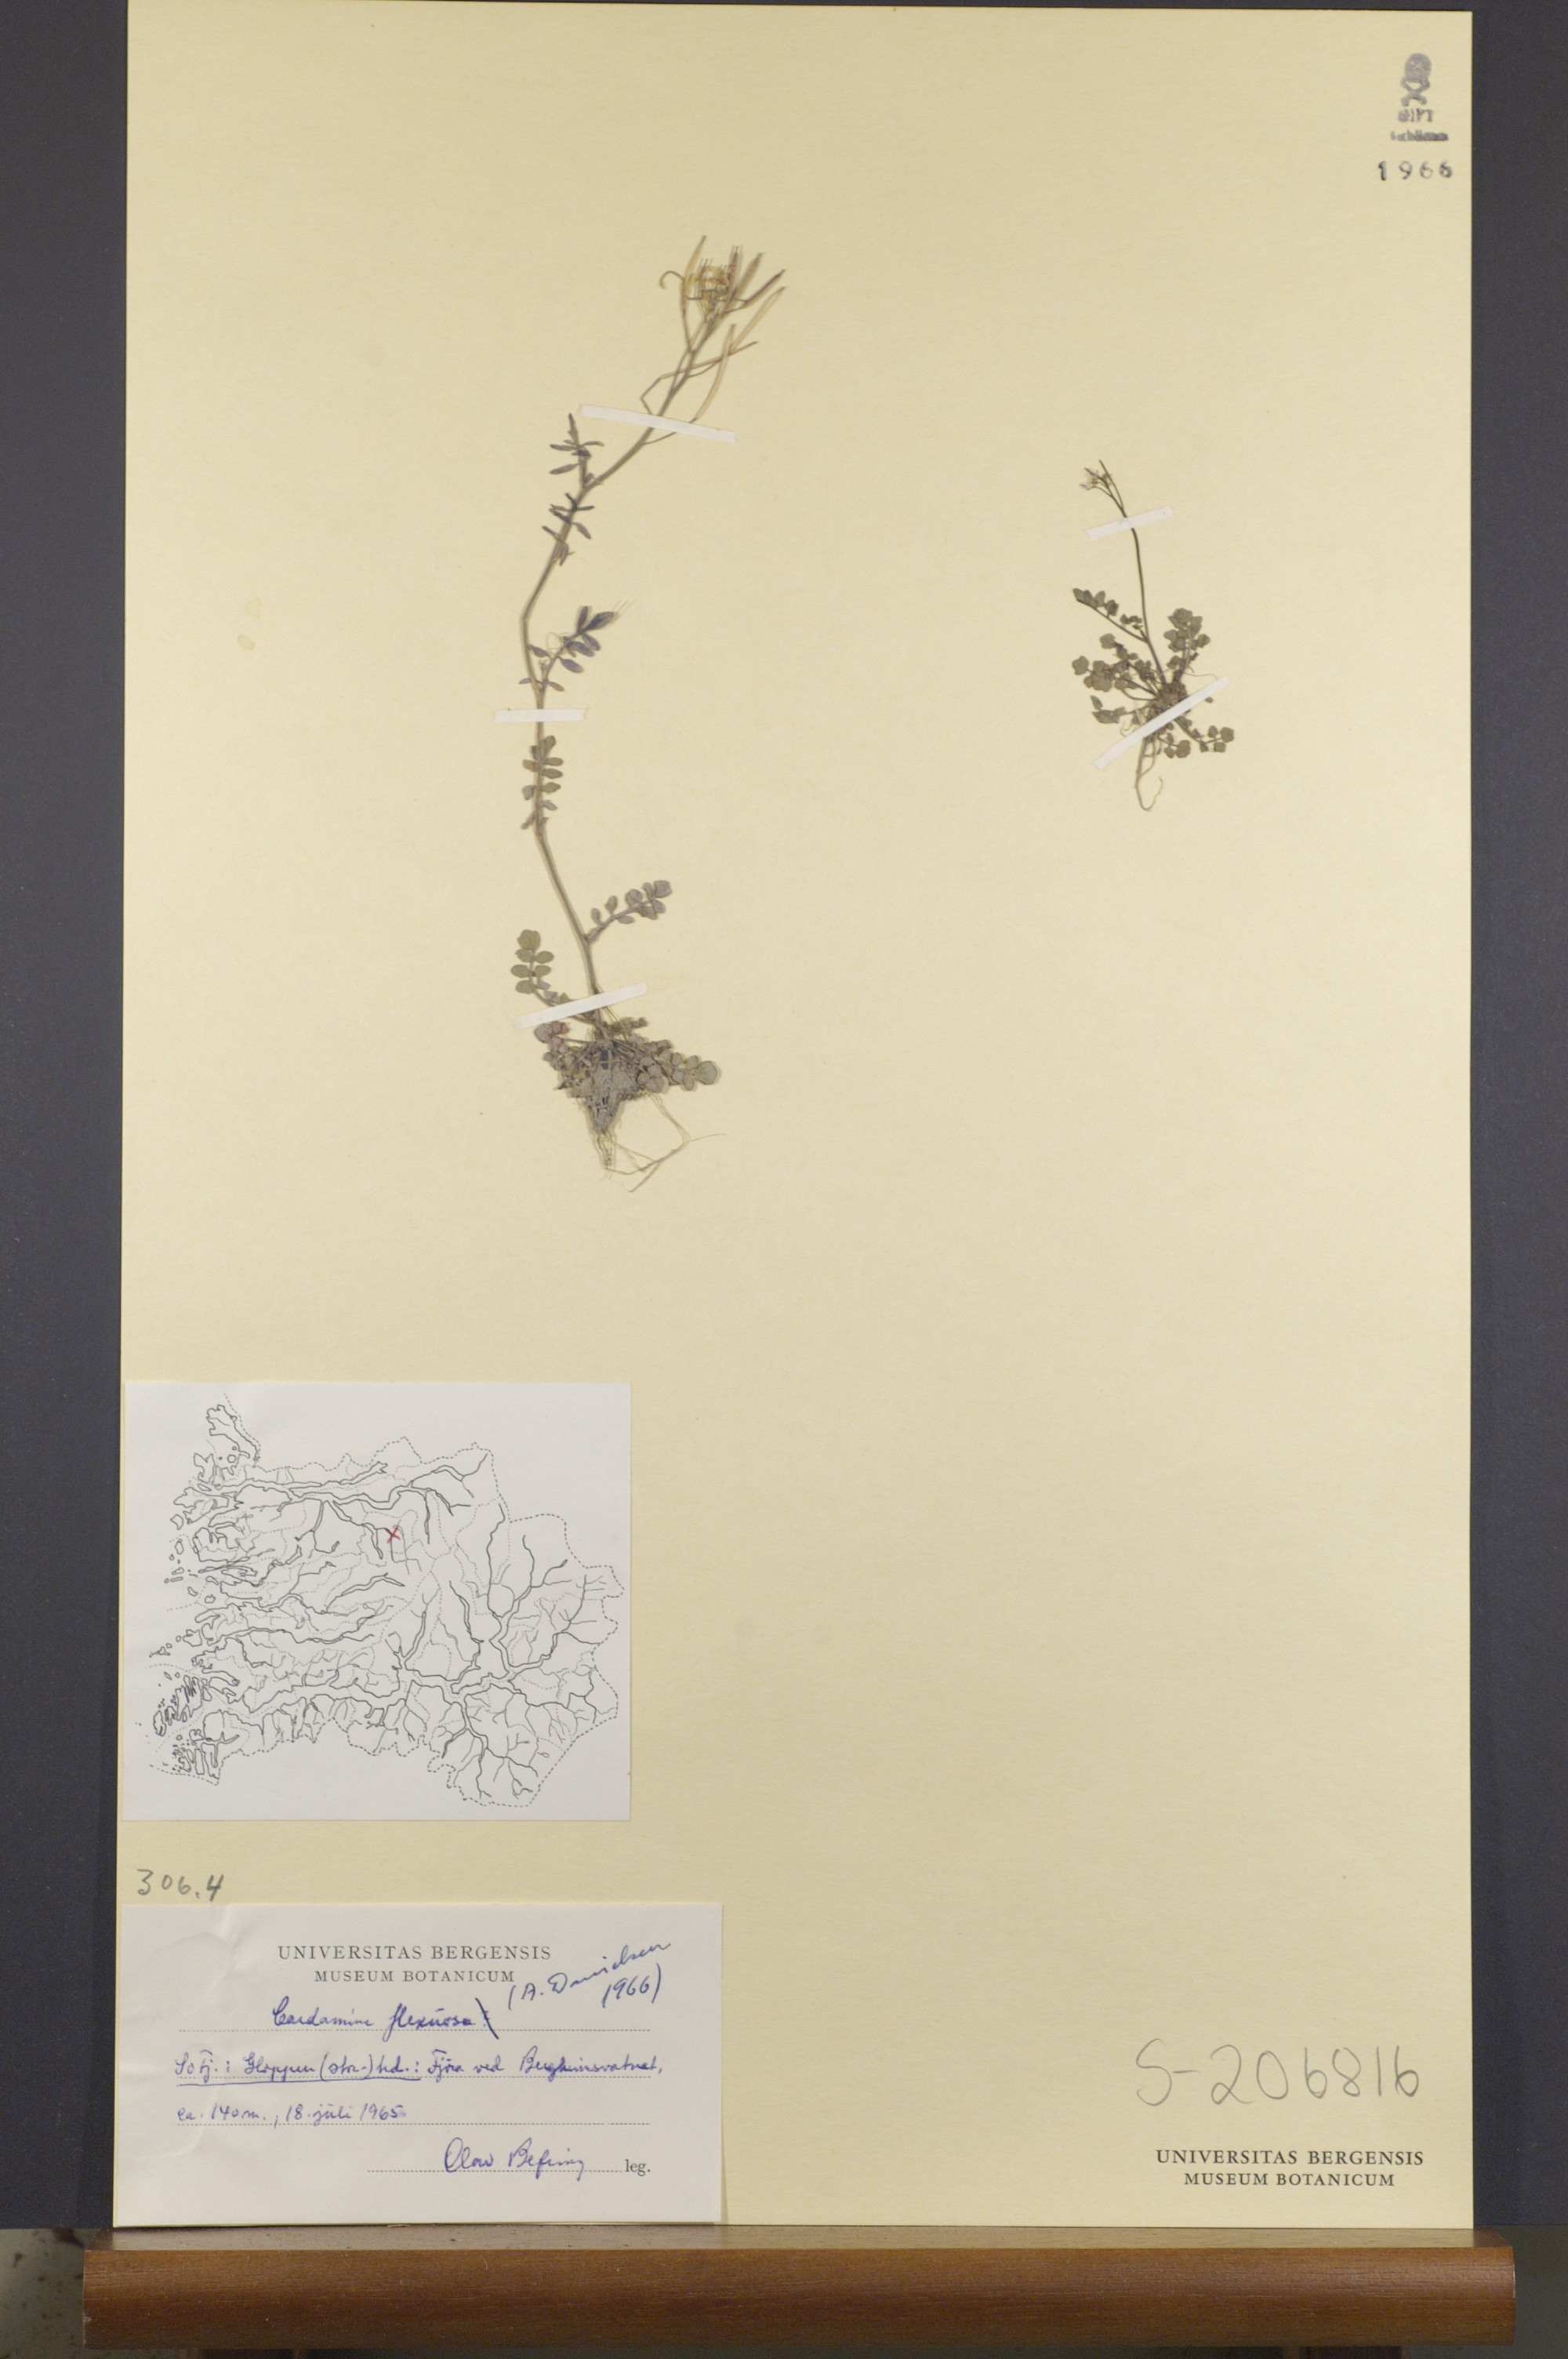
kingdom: Plantae
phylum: Tracheophyta
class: Magnoliopsida
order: Brassicales
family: Brassicaceae
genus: Cardamine
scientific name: Cardamine flexuosa
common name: Woodland bittercress
